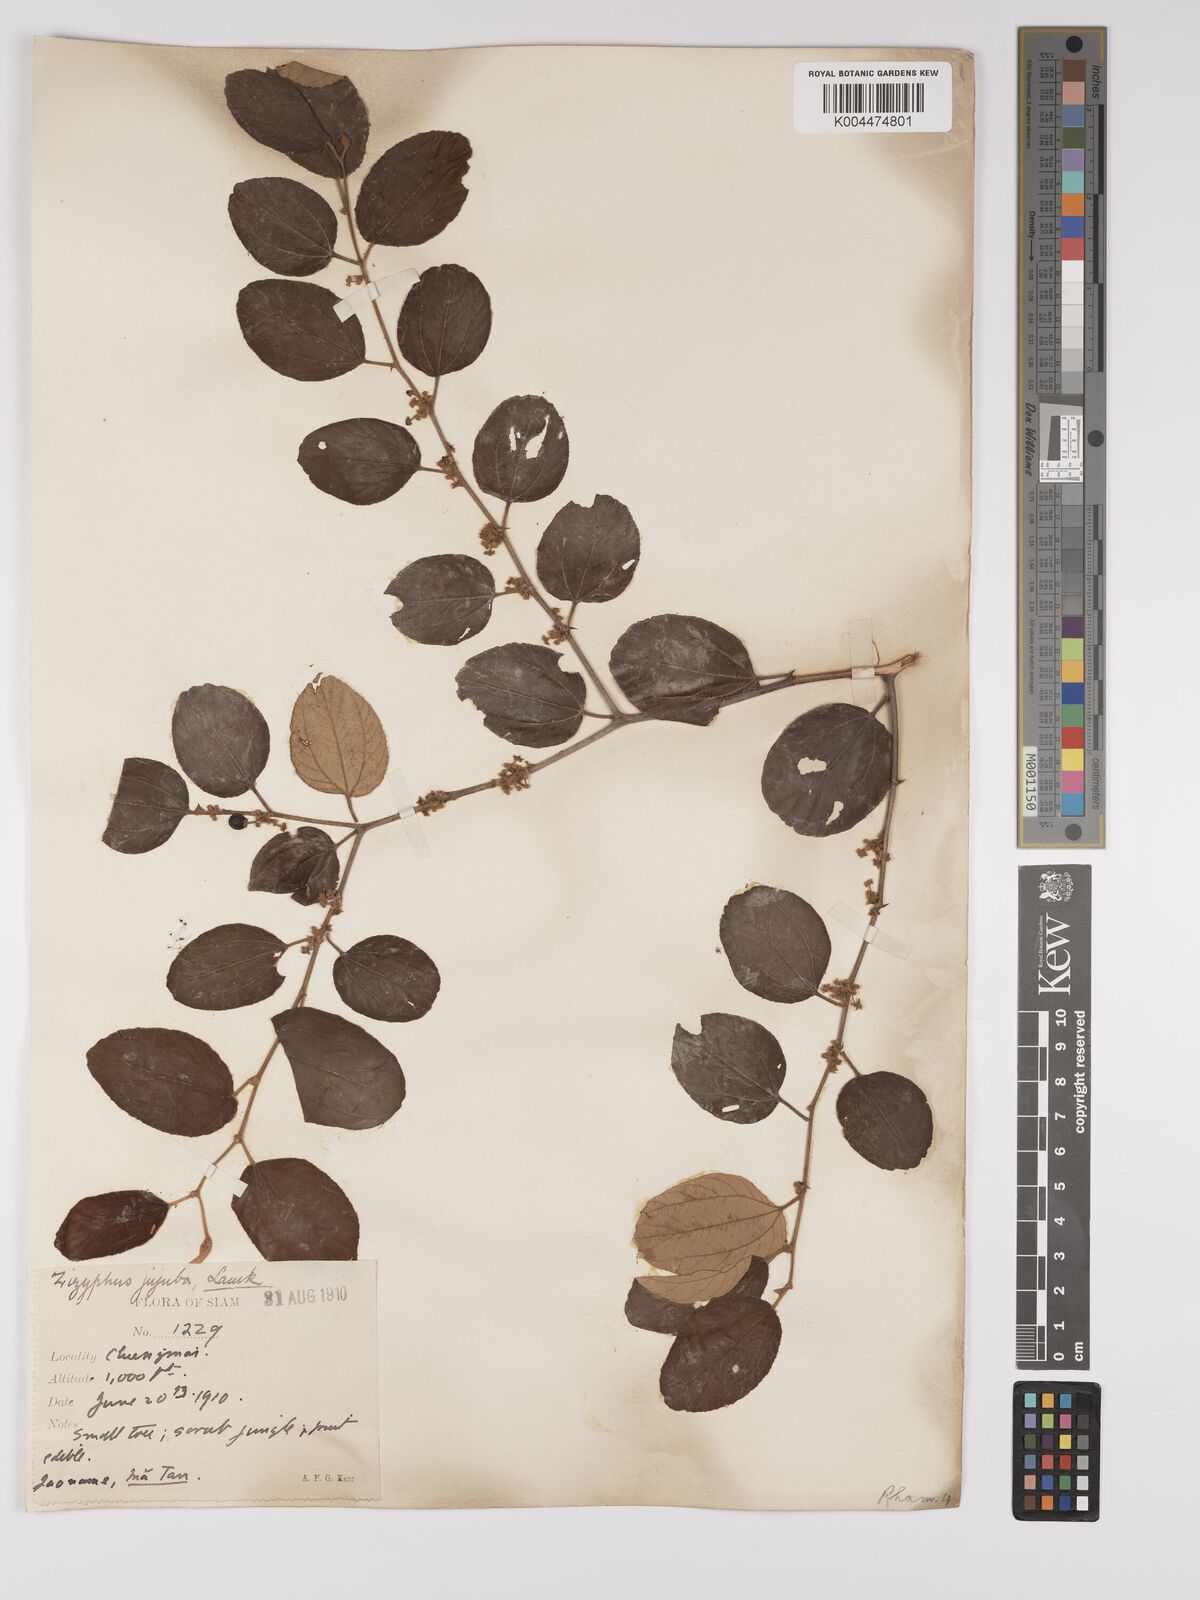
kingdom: Plantae
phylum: Tracheophyta
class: Magnoliopsida
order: Rosales
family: Rhamnaceae
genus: Ziziphus
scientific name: Ziziphus mauritiana
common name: Indian jujube
